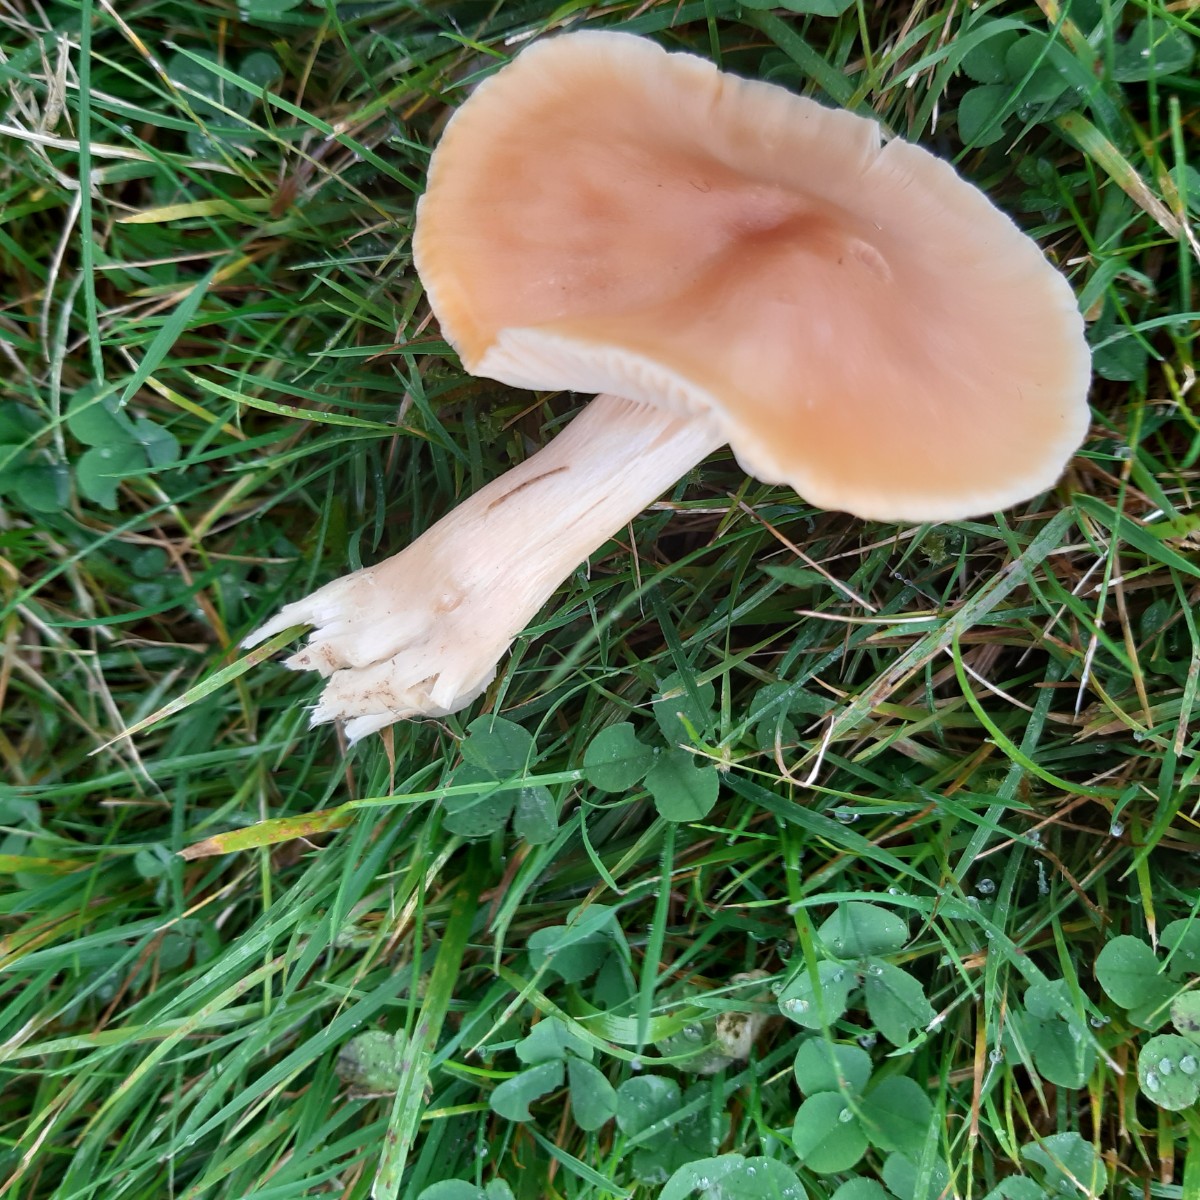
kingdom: Fungi
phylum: Basidiomycota
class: Agaricomycetes
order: Agaricales
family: Hygrophoraceae
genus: Cuphophyllus
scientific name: Cuphophyllus pratensis
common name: eng-vokshat
